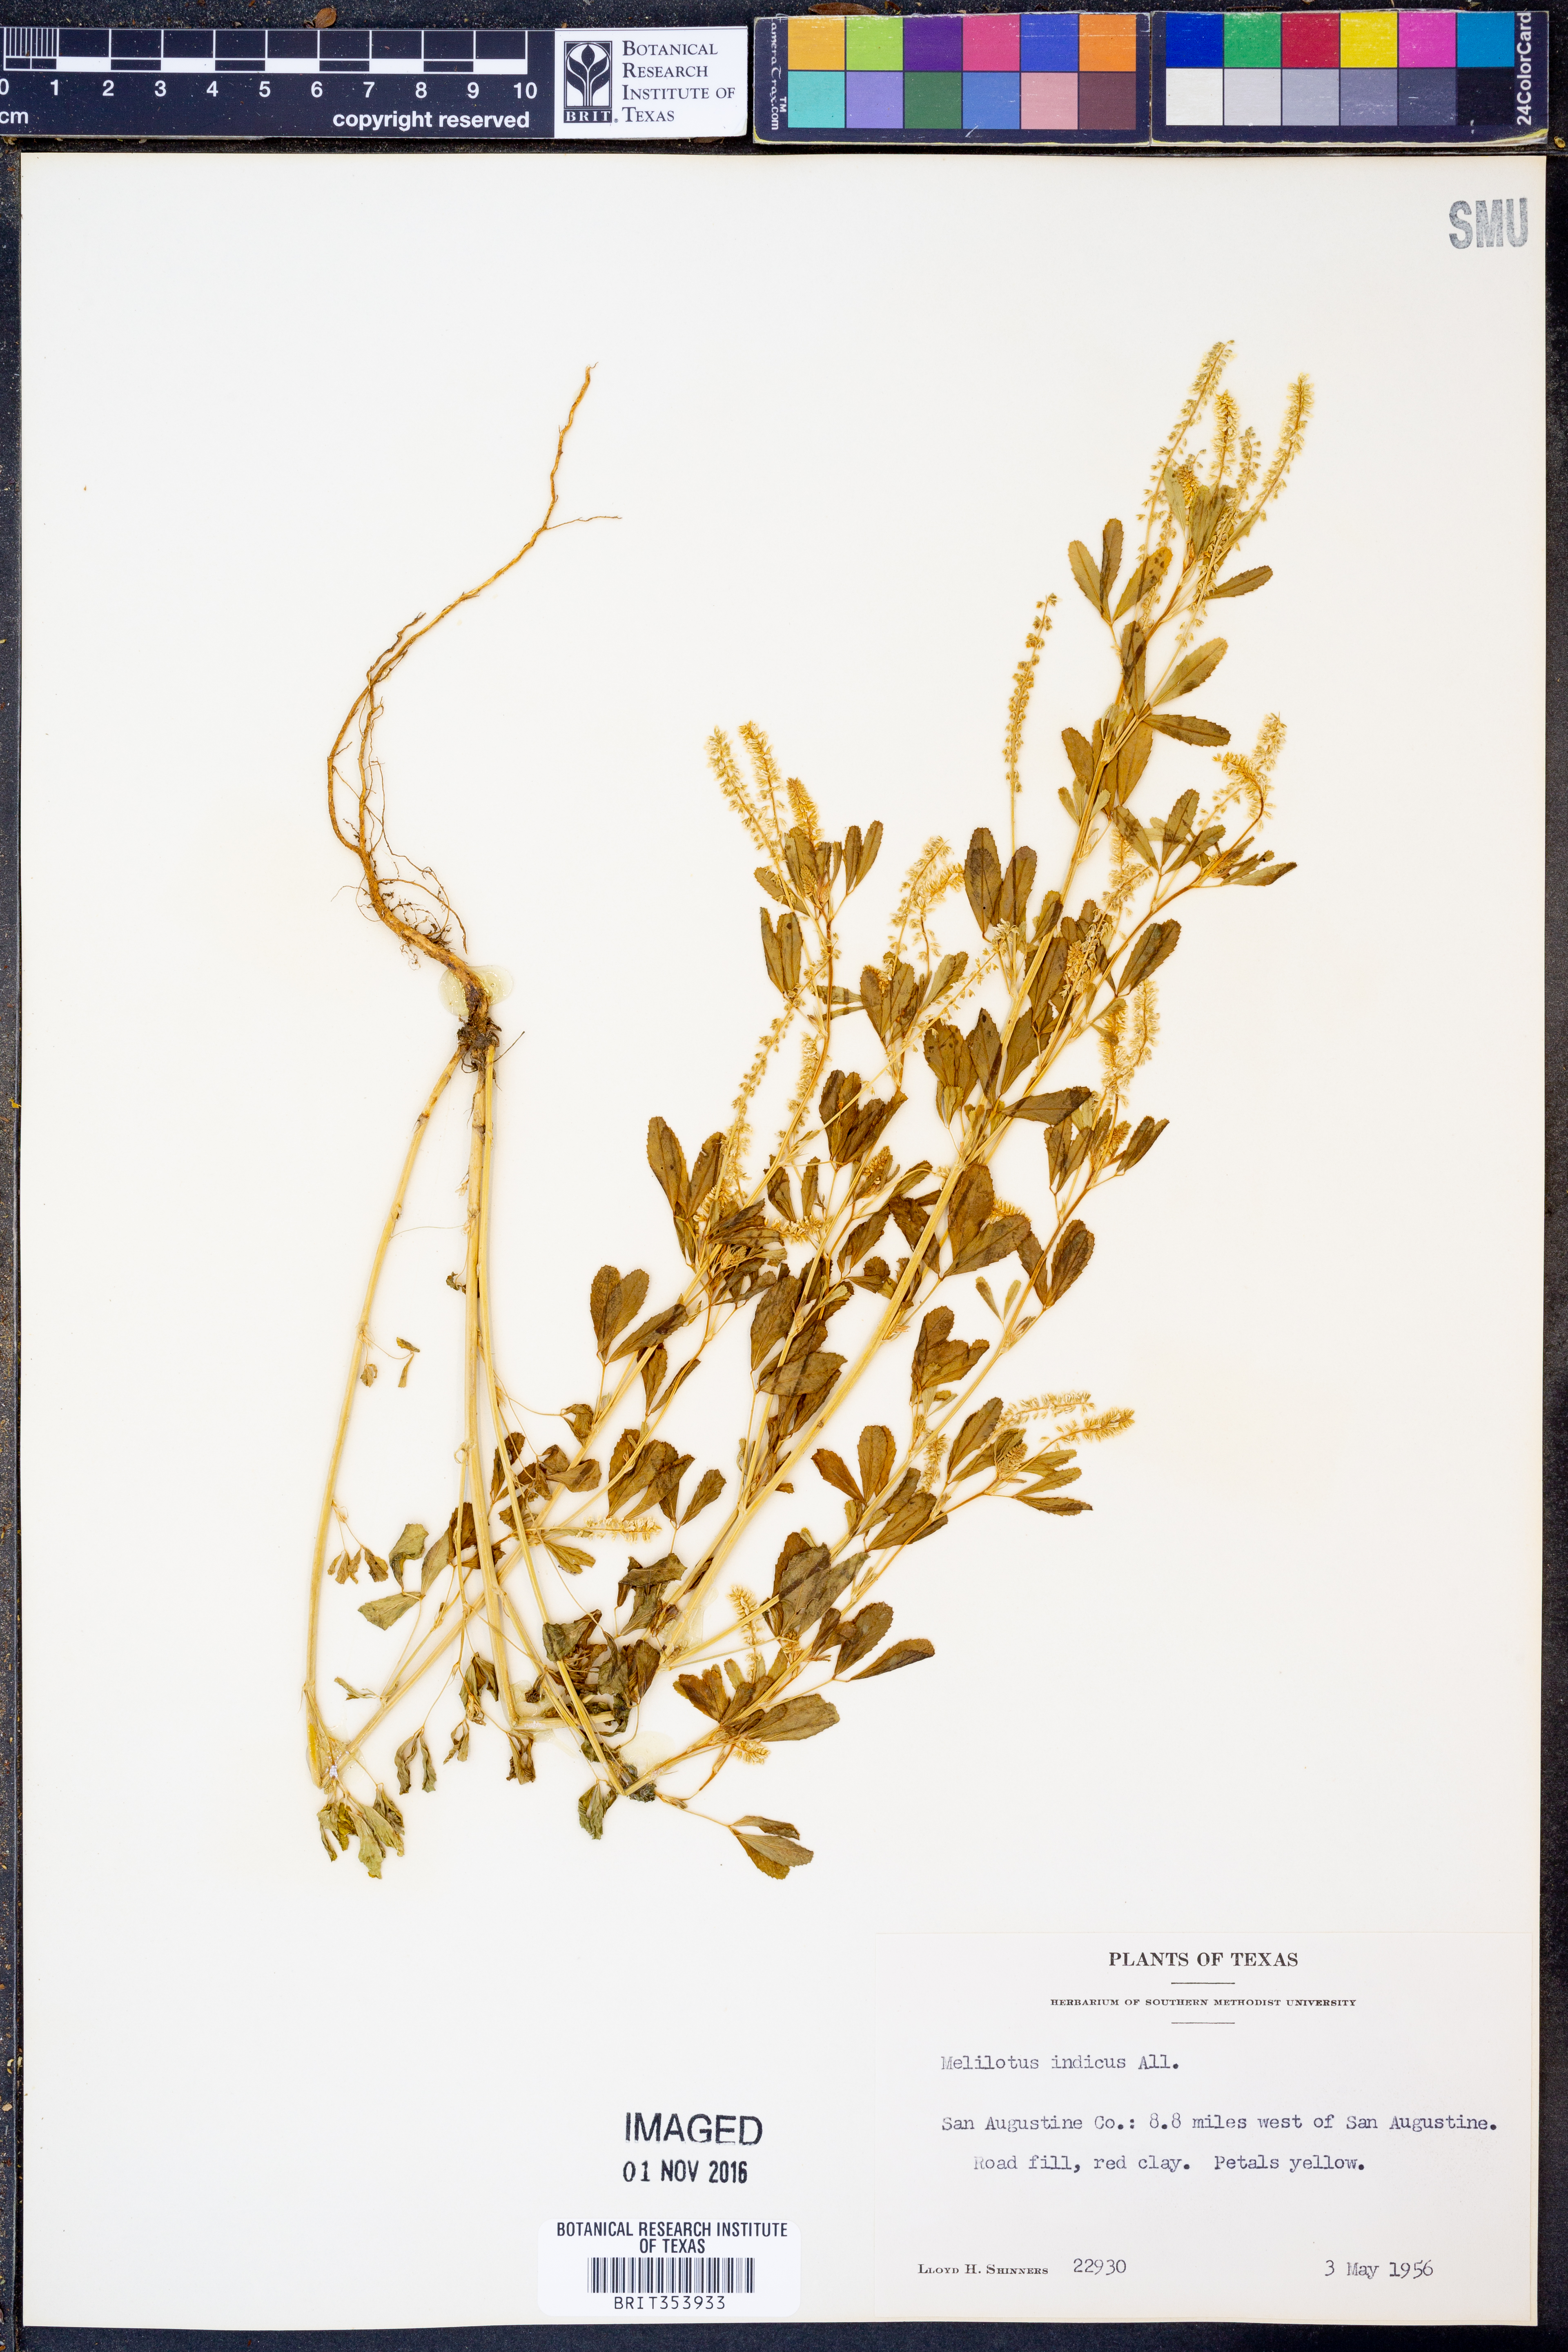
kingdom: Plantae
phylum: Tracheophyta
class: Magnoliopsida
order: Fabales
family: Fabaceae
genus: Melilotus
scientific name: Melilotus indicus
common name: Small melilot
